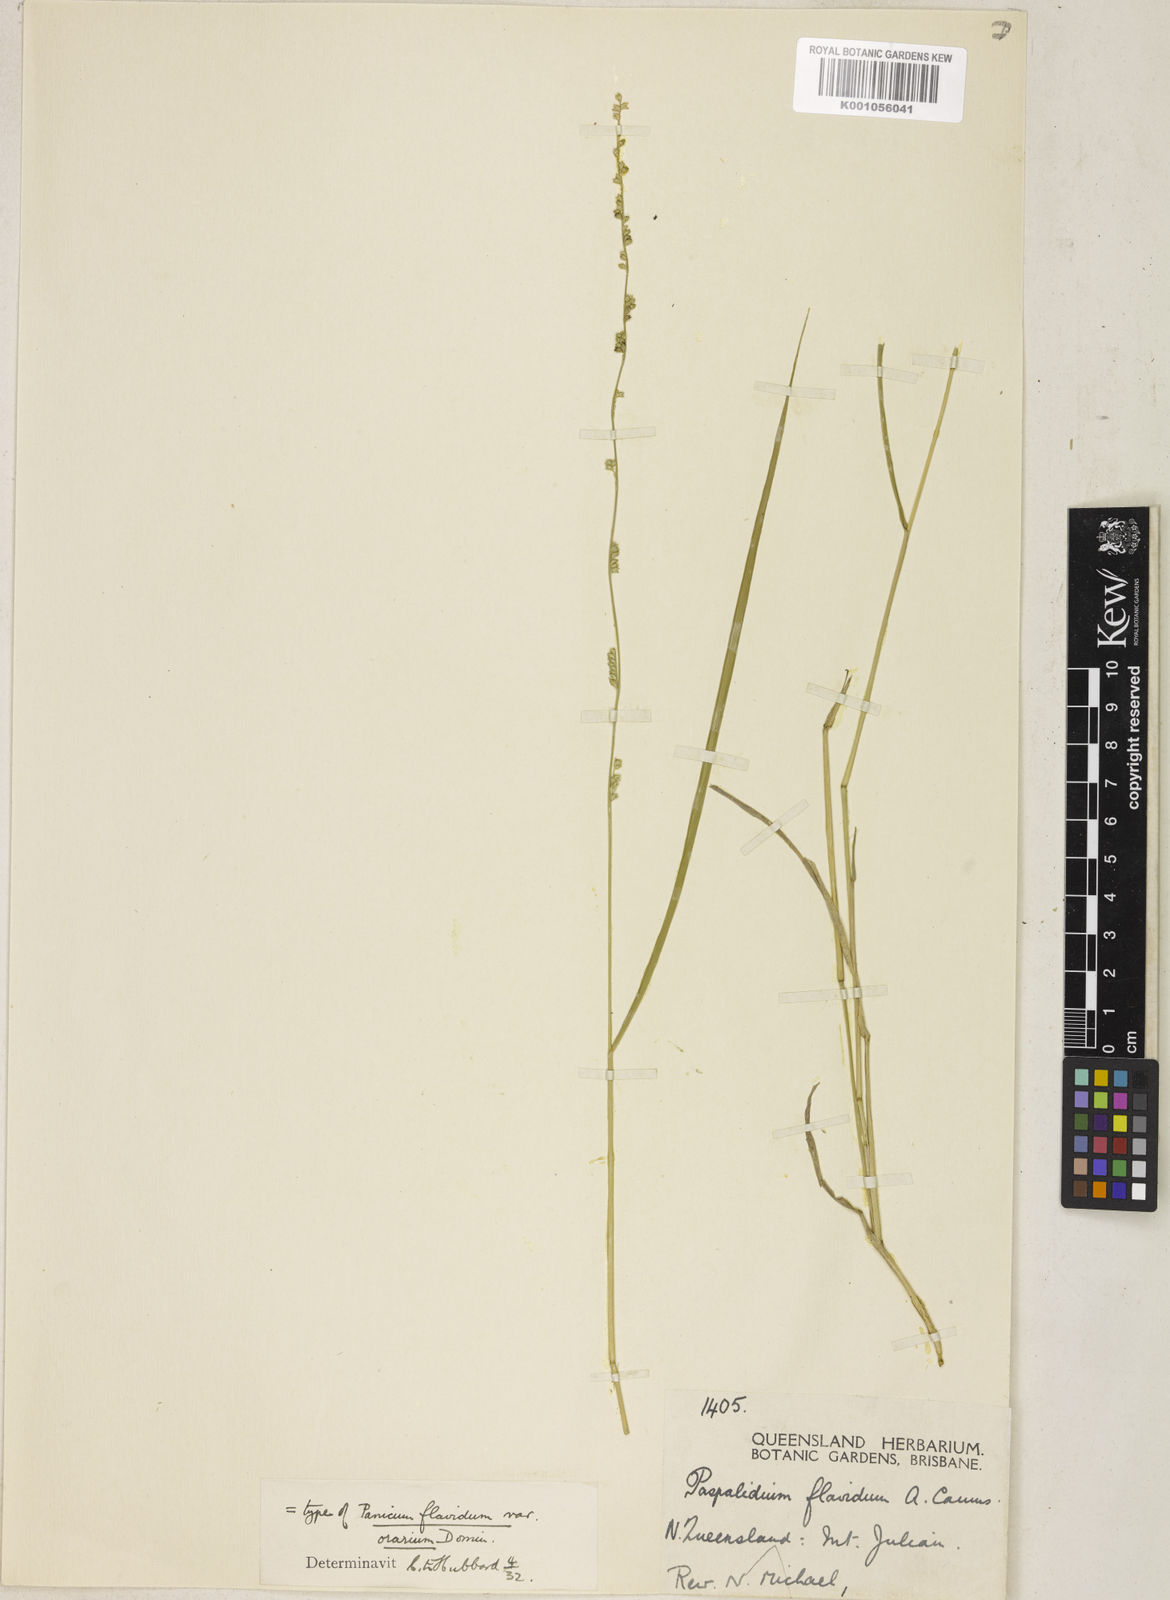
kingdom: Plantae
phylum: Tracheophyta
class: Liliopsida
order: Poales
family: Poaceae
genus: Setaria
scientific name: Setaria flavida
